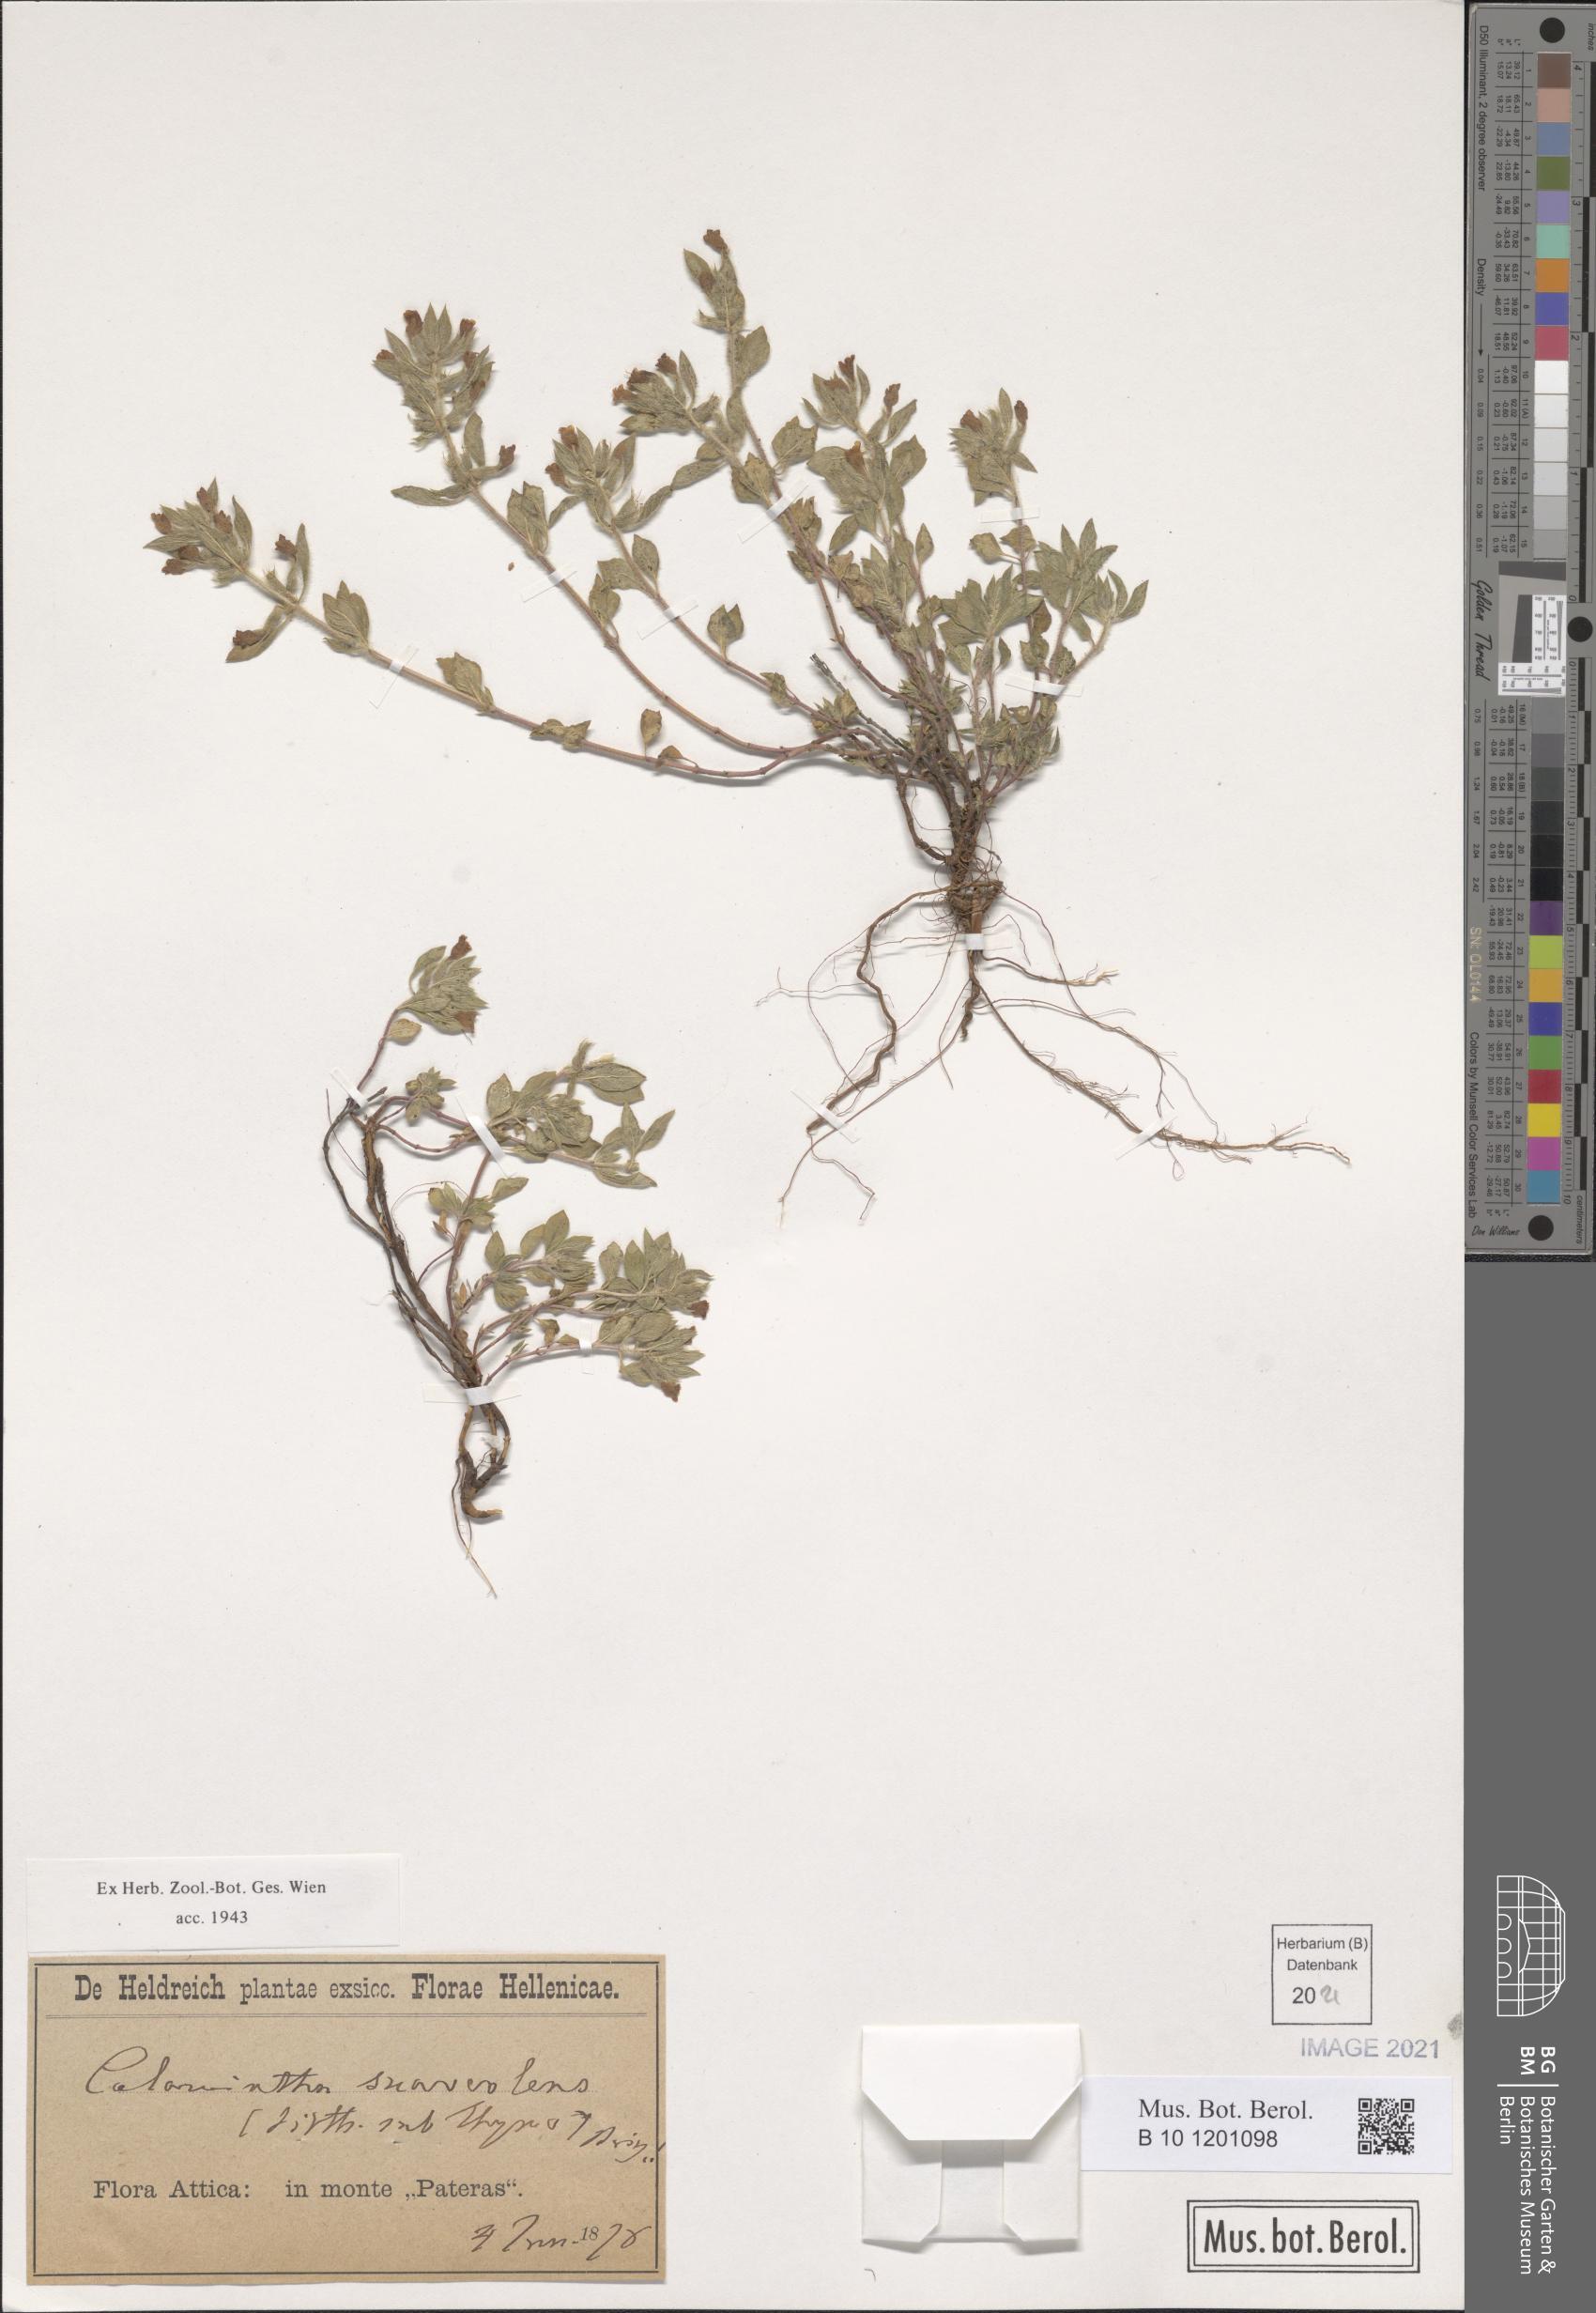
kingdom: Plantae
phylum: Tracheophyta
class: Magnoliopsida
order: Lamiales
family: Lamiaceae
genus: Clinopodium
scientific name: Clinopodium suaveolens
